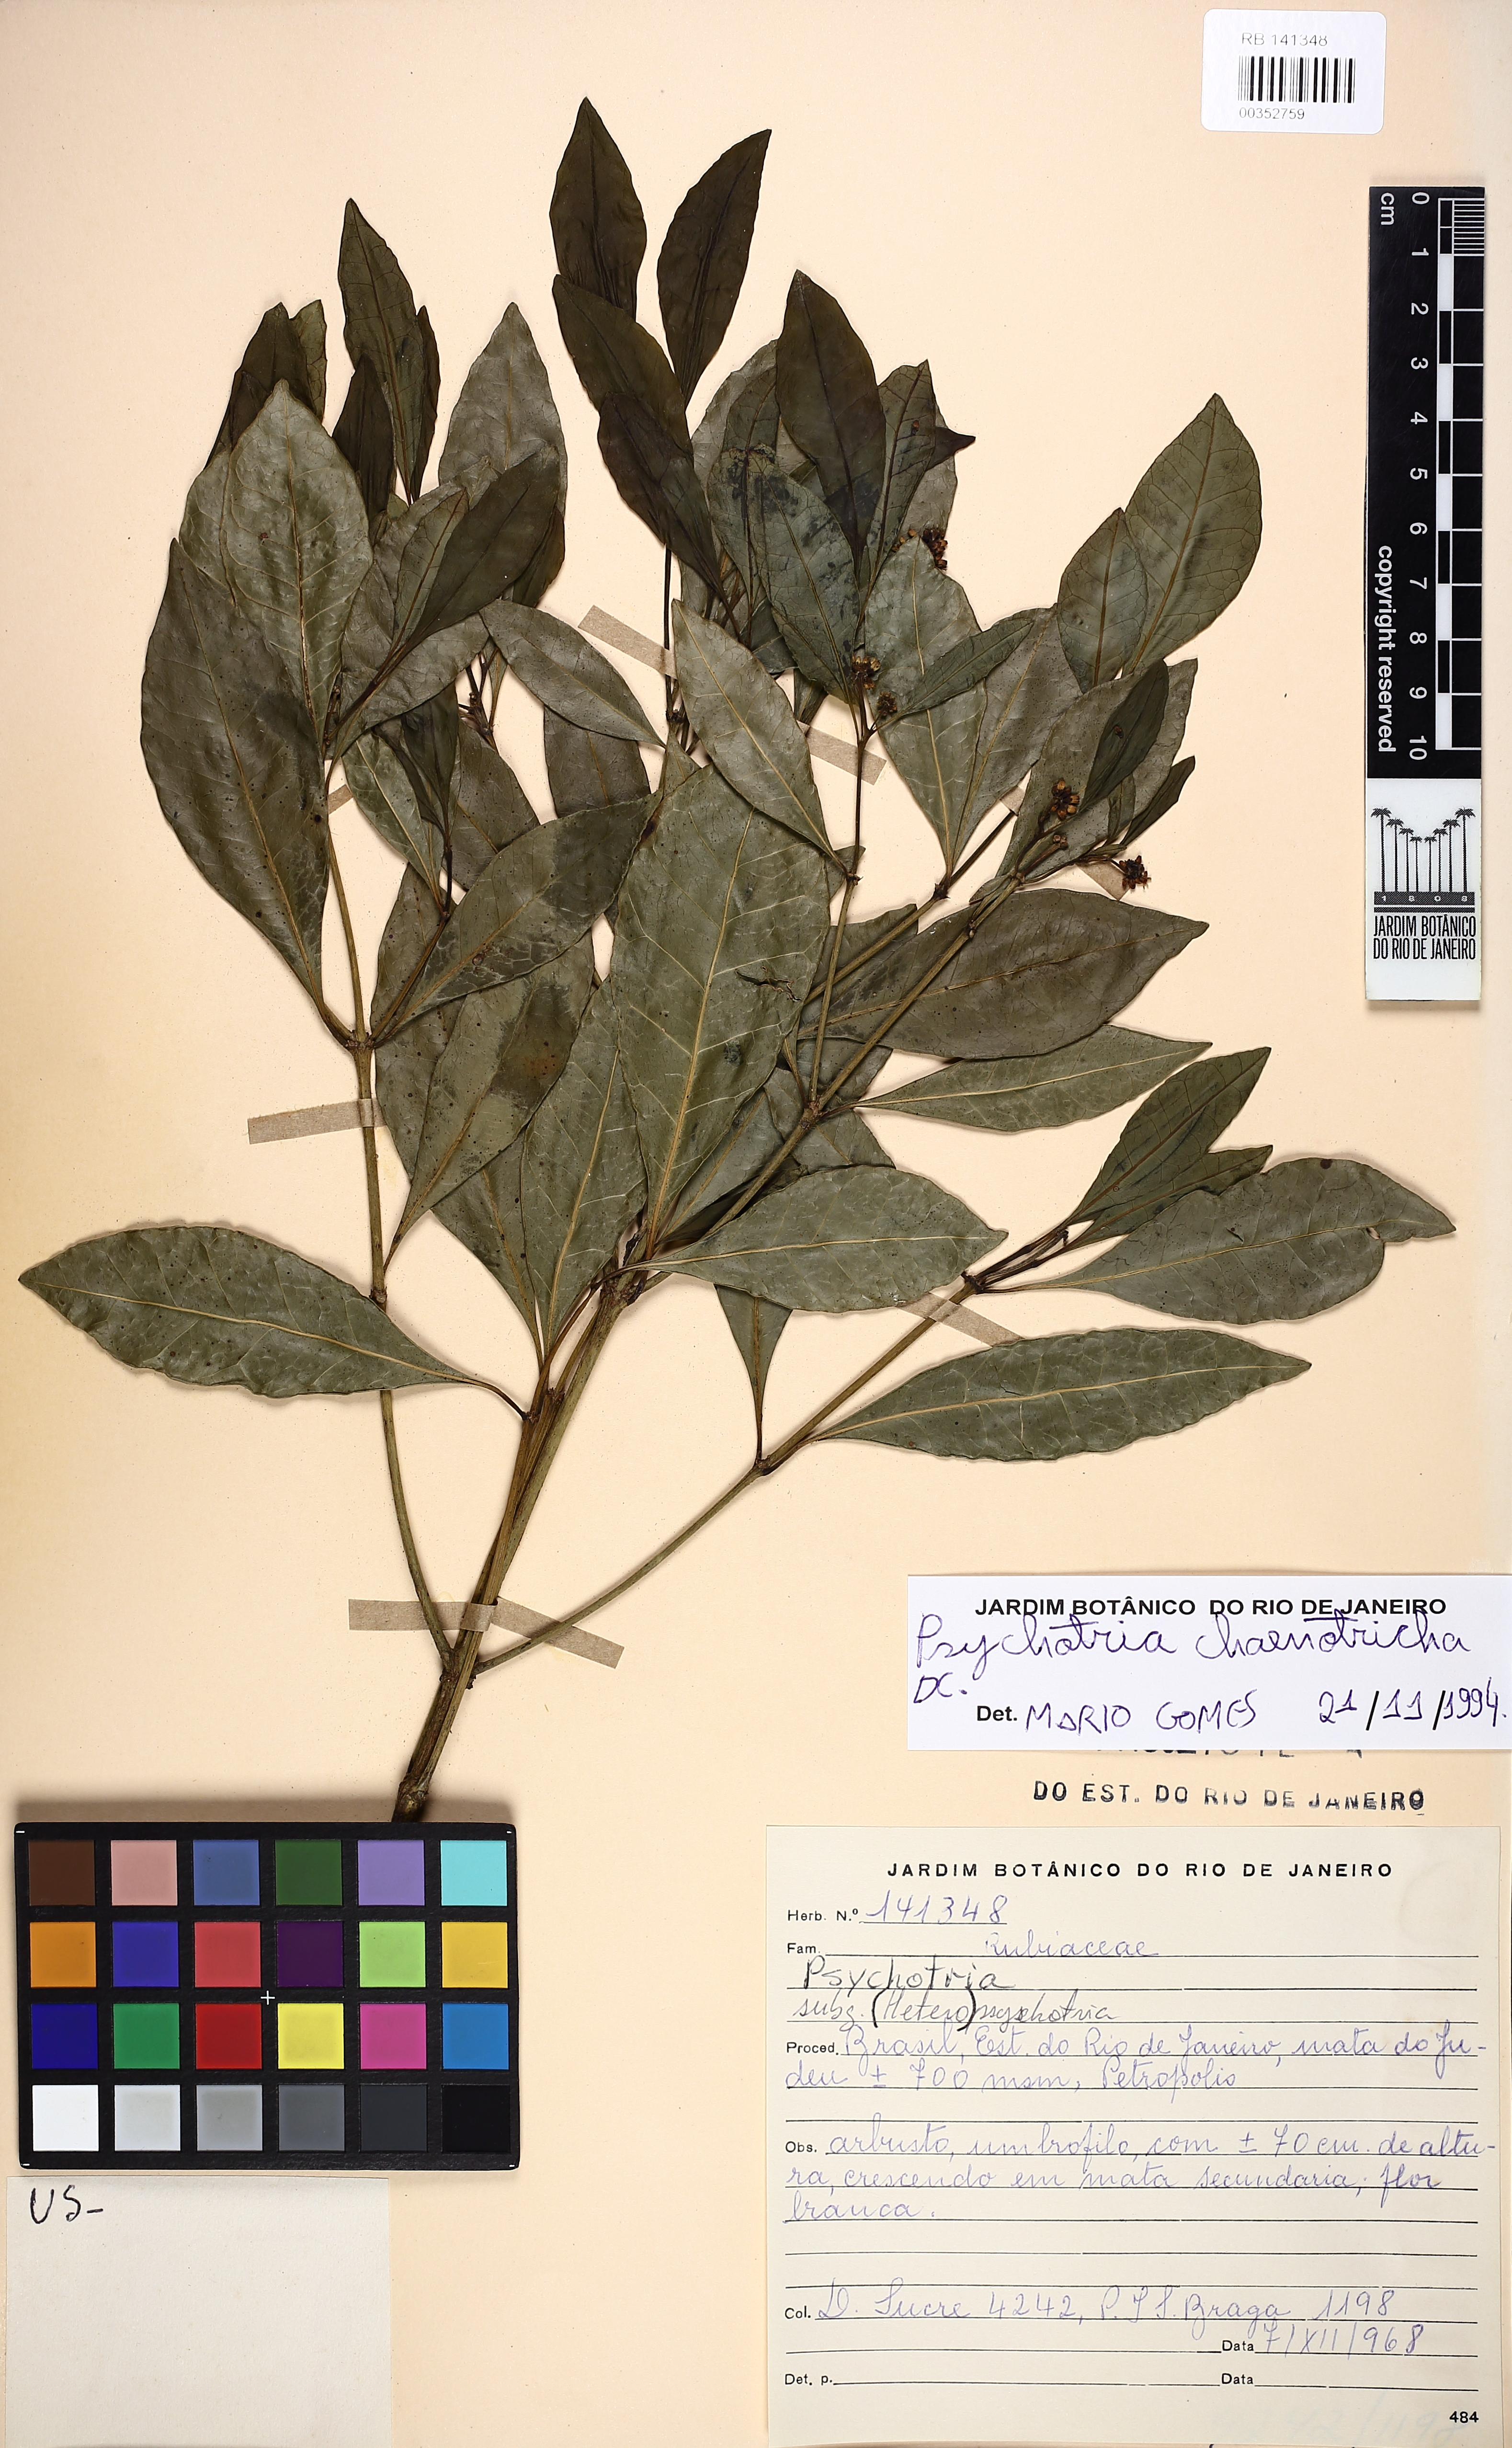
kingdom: Plantae
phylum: Tracheophyta
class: Magnoliopsida
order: Gentianales
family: Rubiaceae
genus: Eumachia
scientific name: Eumachia chaenotricha
